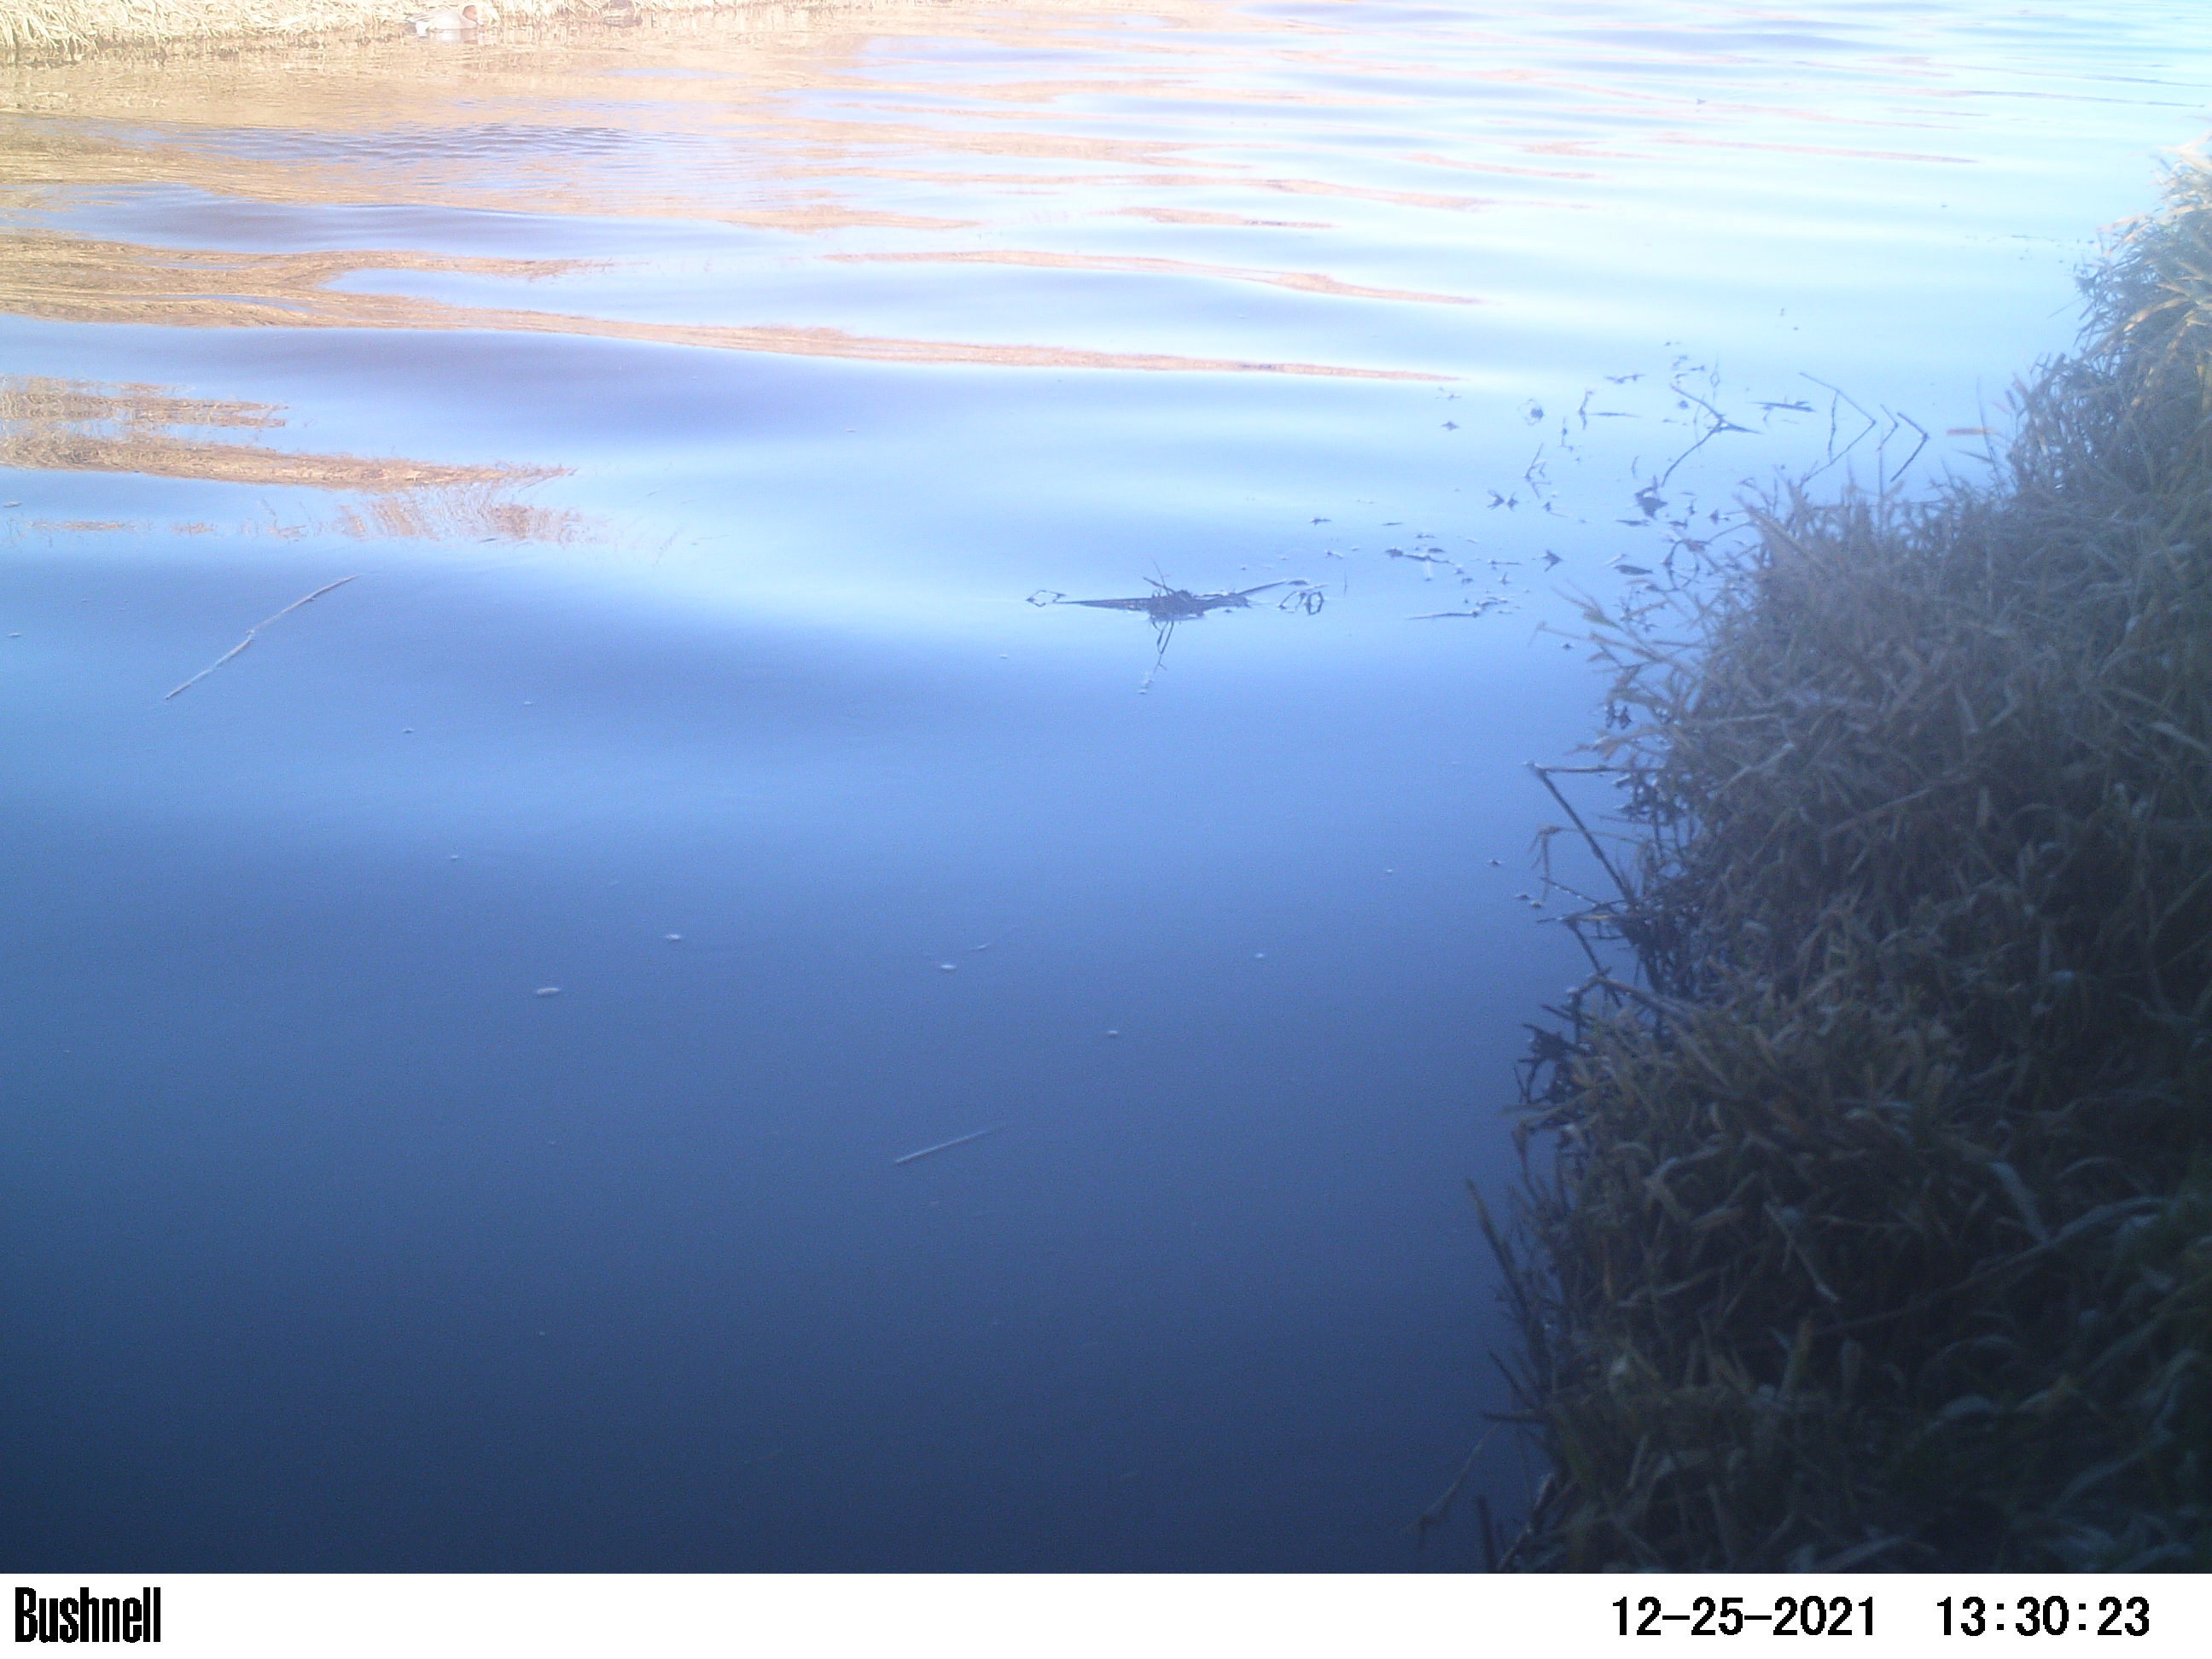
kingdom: Animalia
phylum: Chordata
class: Aves
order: Gruiformes
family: Rallidae
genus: Gallinula
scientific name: Gallinula chloropus
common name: Common moorhen
